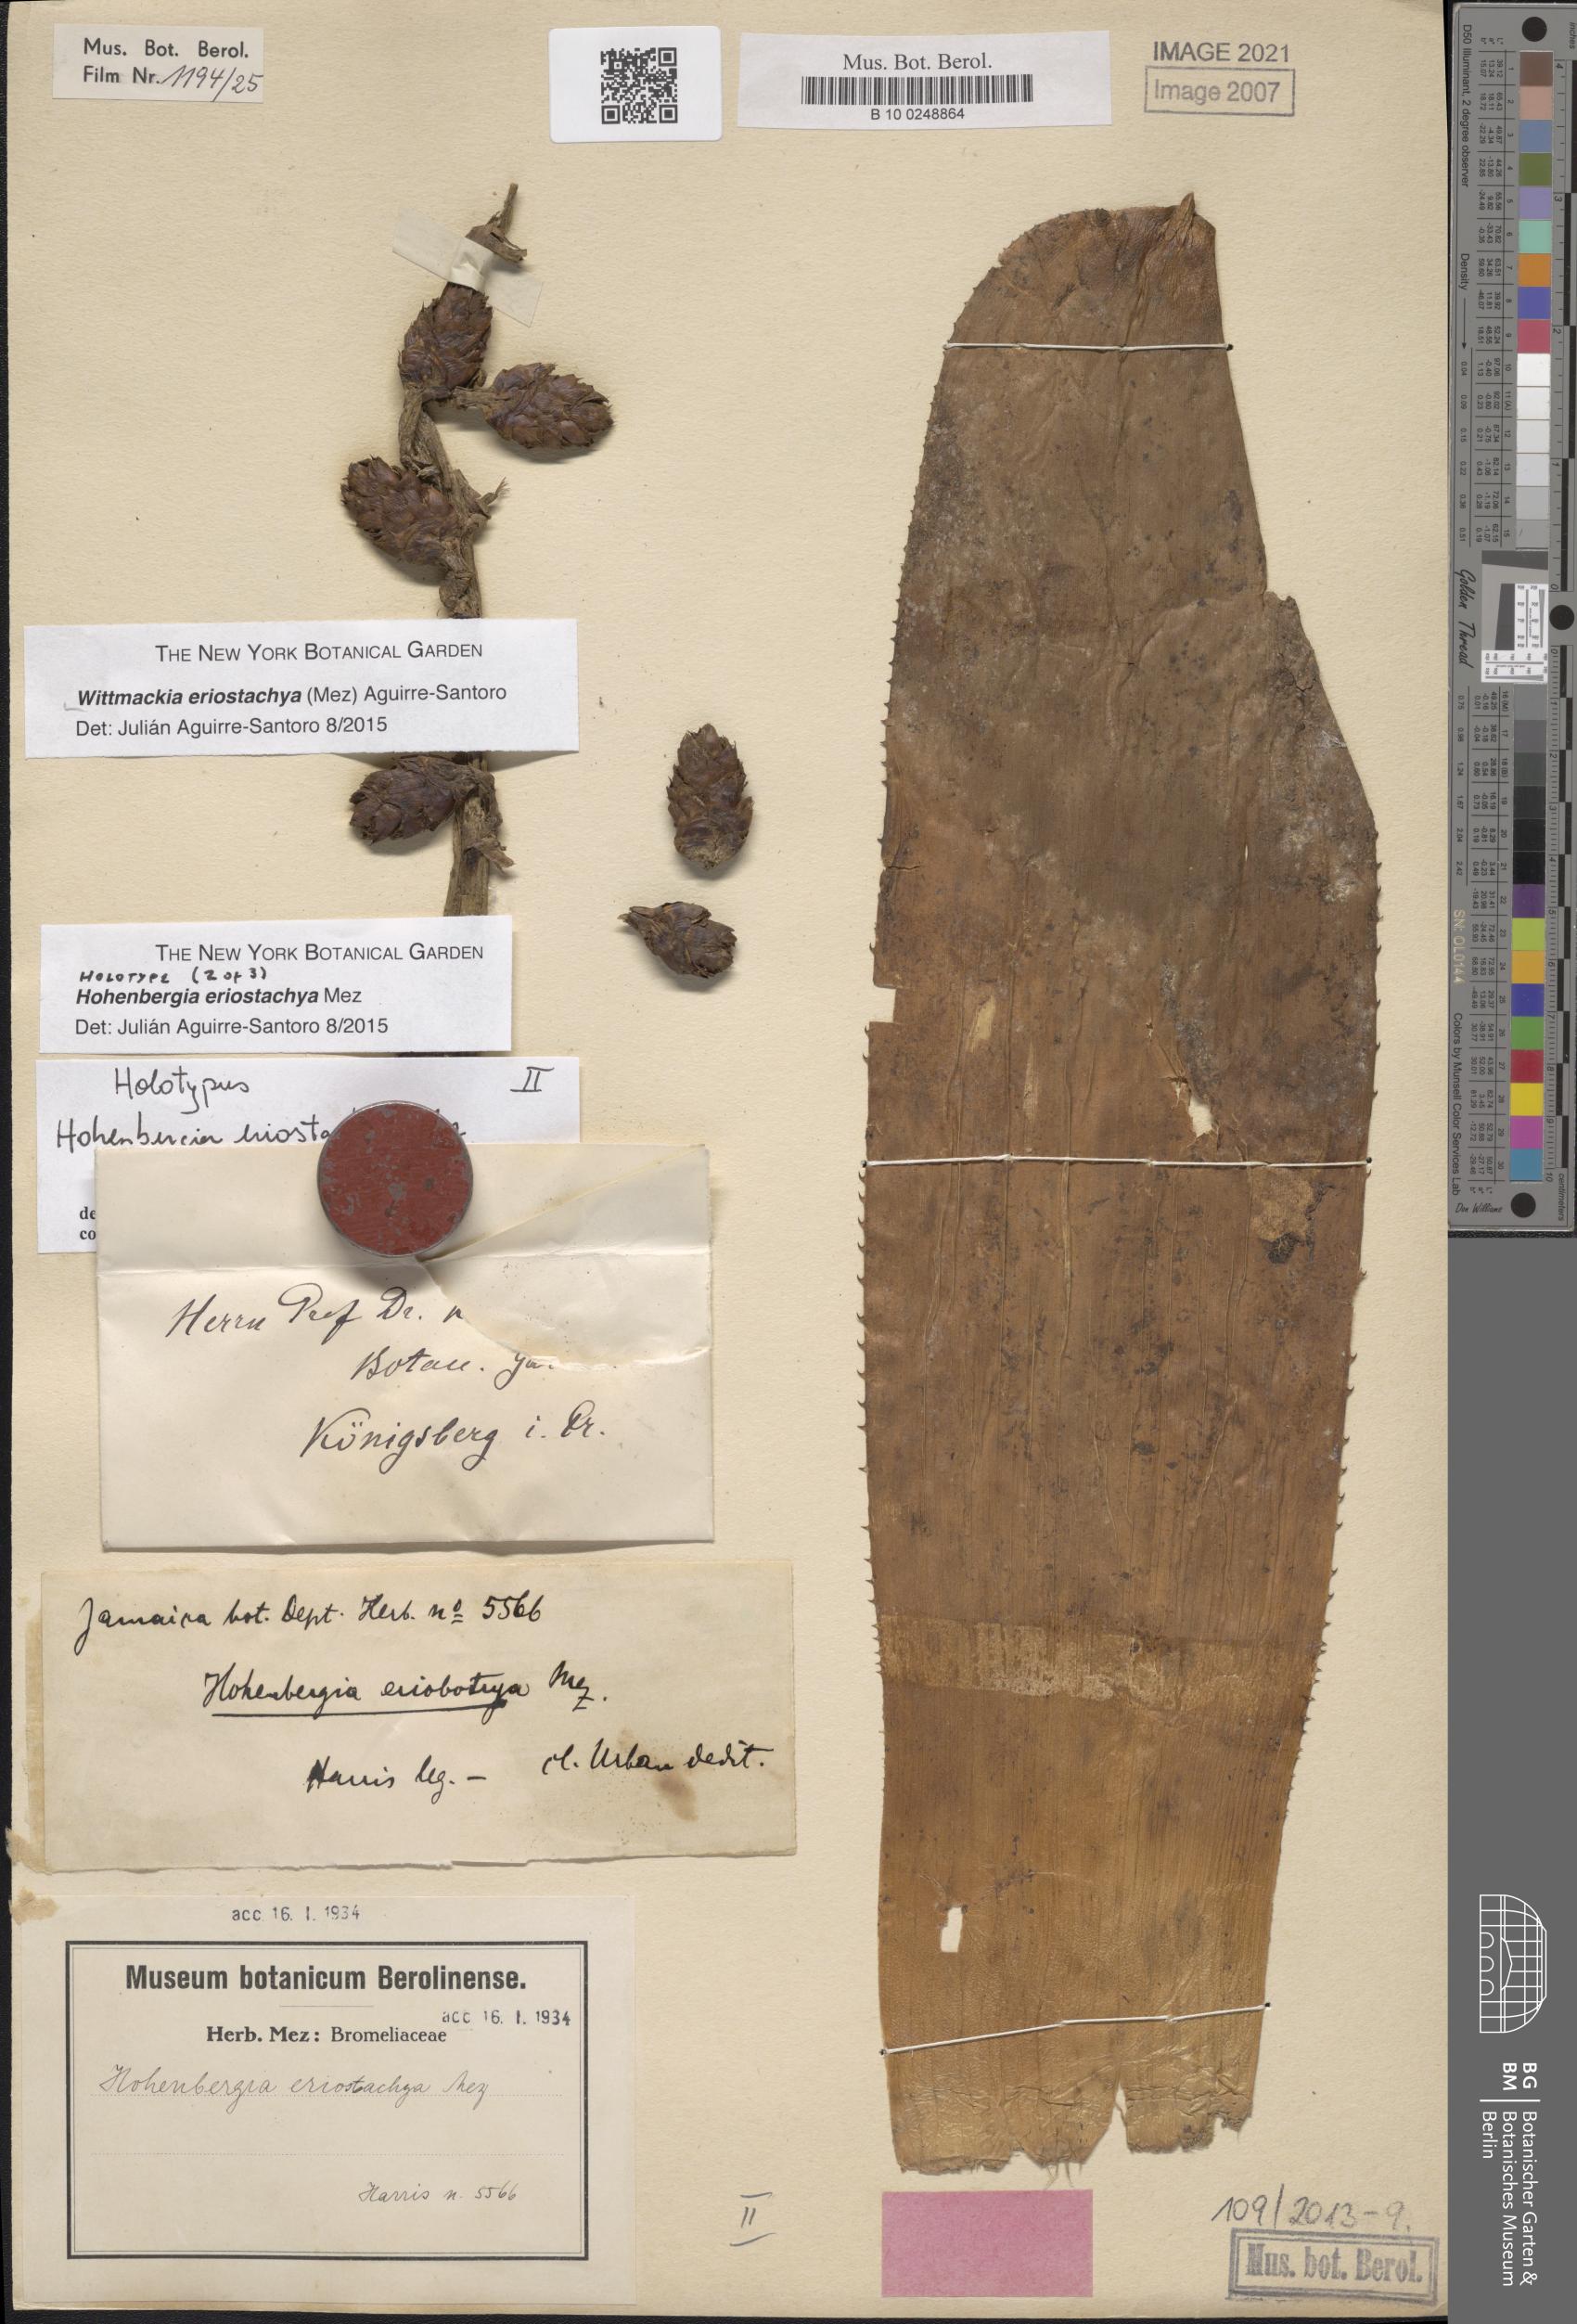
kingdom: Plantae
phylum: Tracheophyta
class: Liliopsida
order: Poales
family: Bromeliaceae
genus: Wittmackia
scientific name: Wittmackia eriostachya
